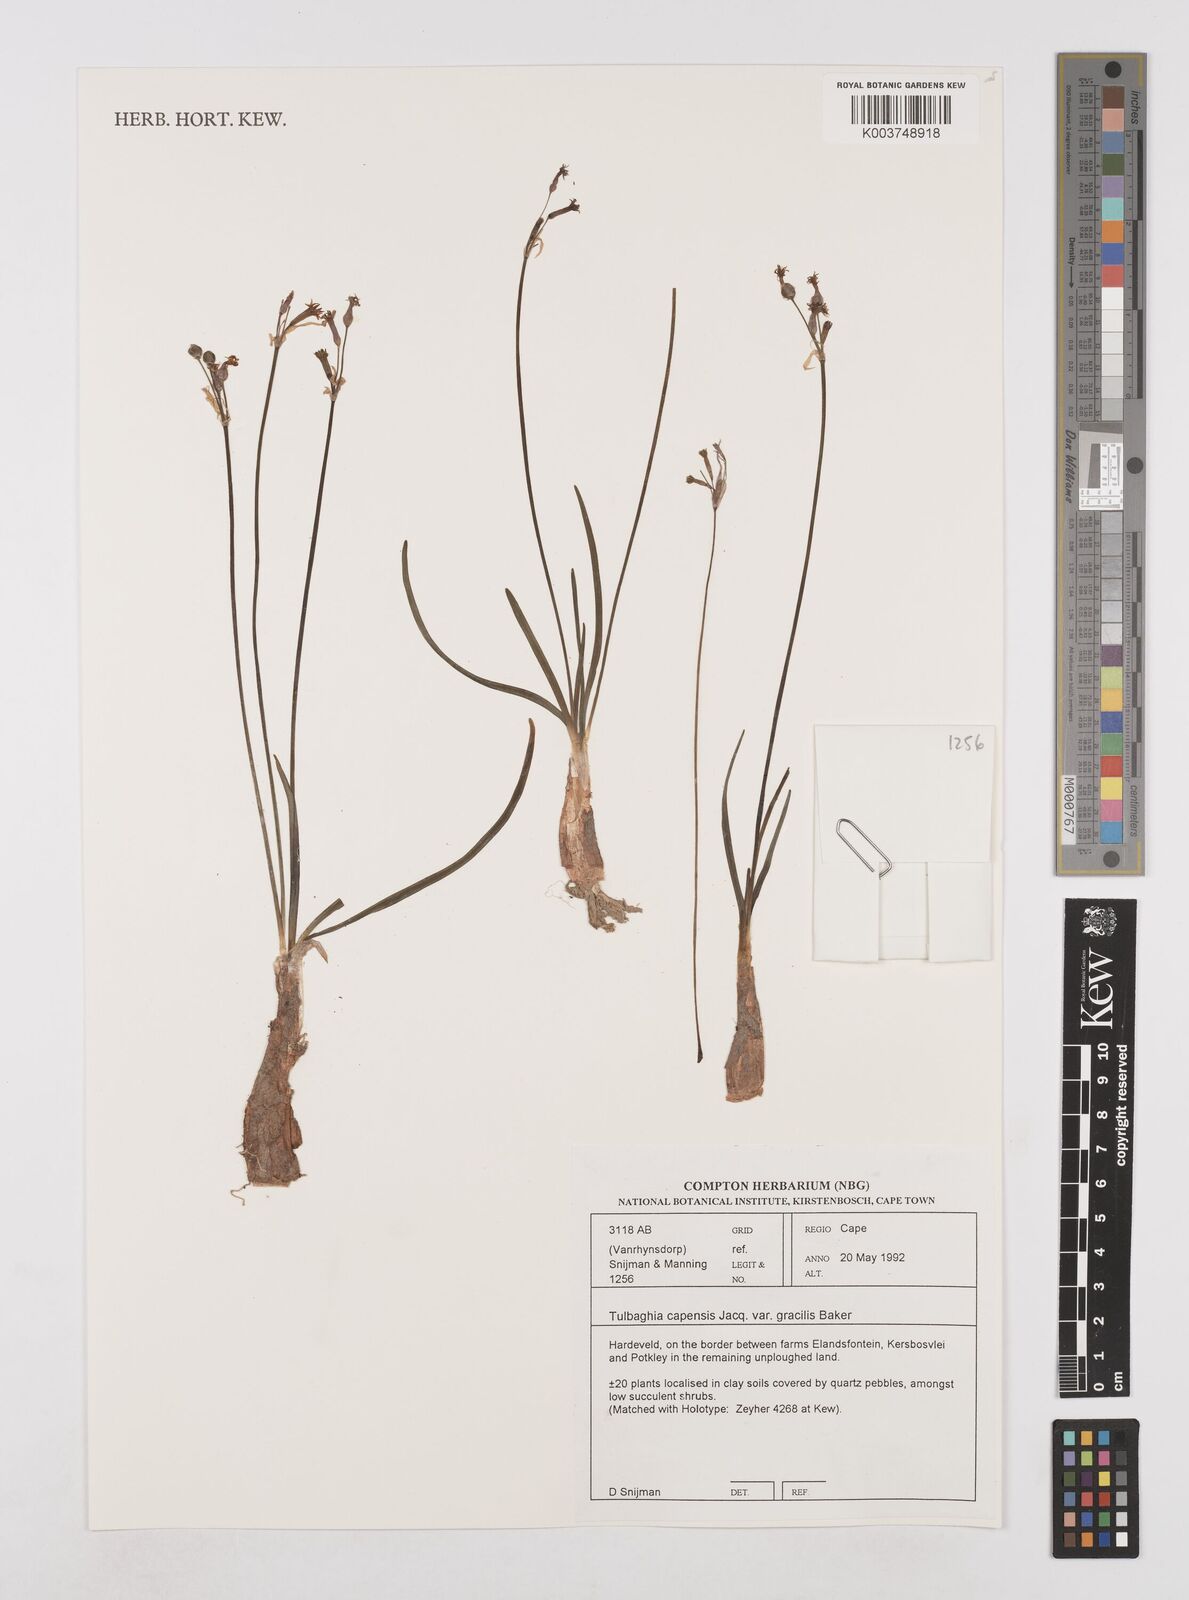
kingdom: Plantae
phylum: Tracheophyta
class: Liliopsida
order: Asparagales
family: Amaryllidaceae
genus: Tulbaghia
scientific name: Tulbaghia capensis
